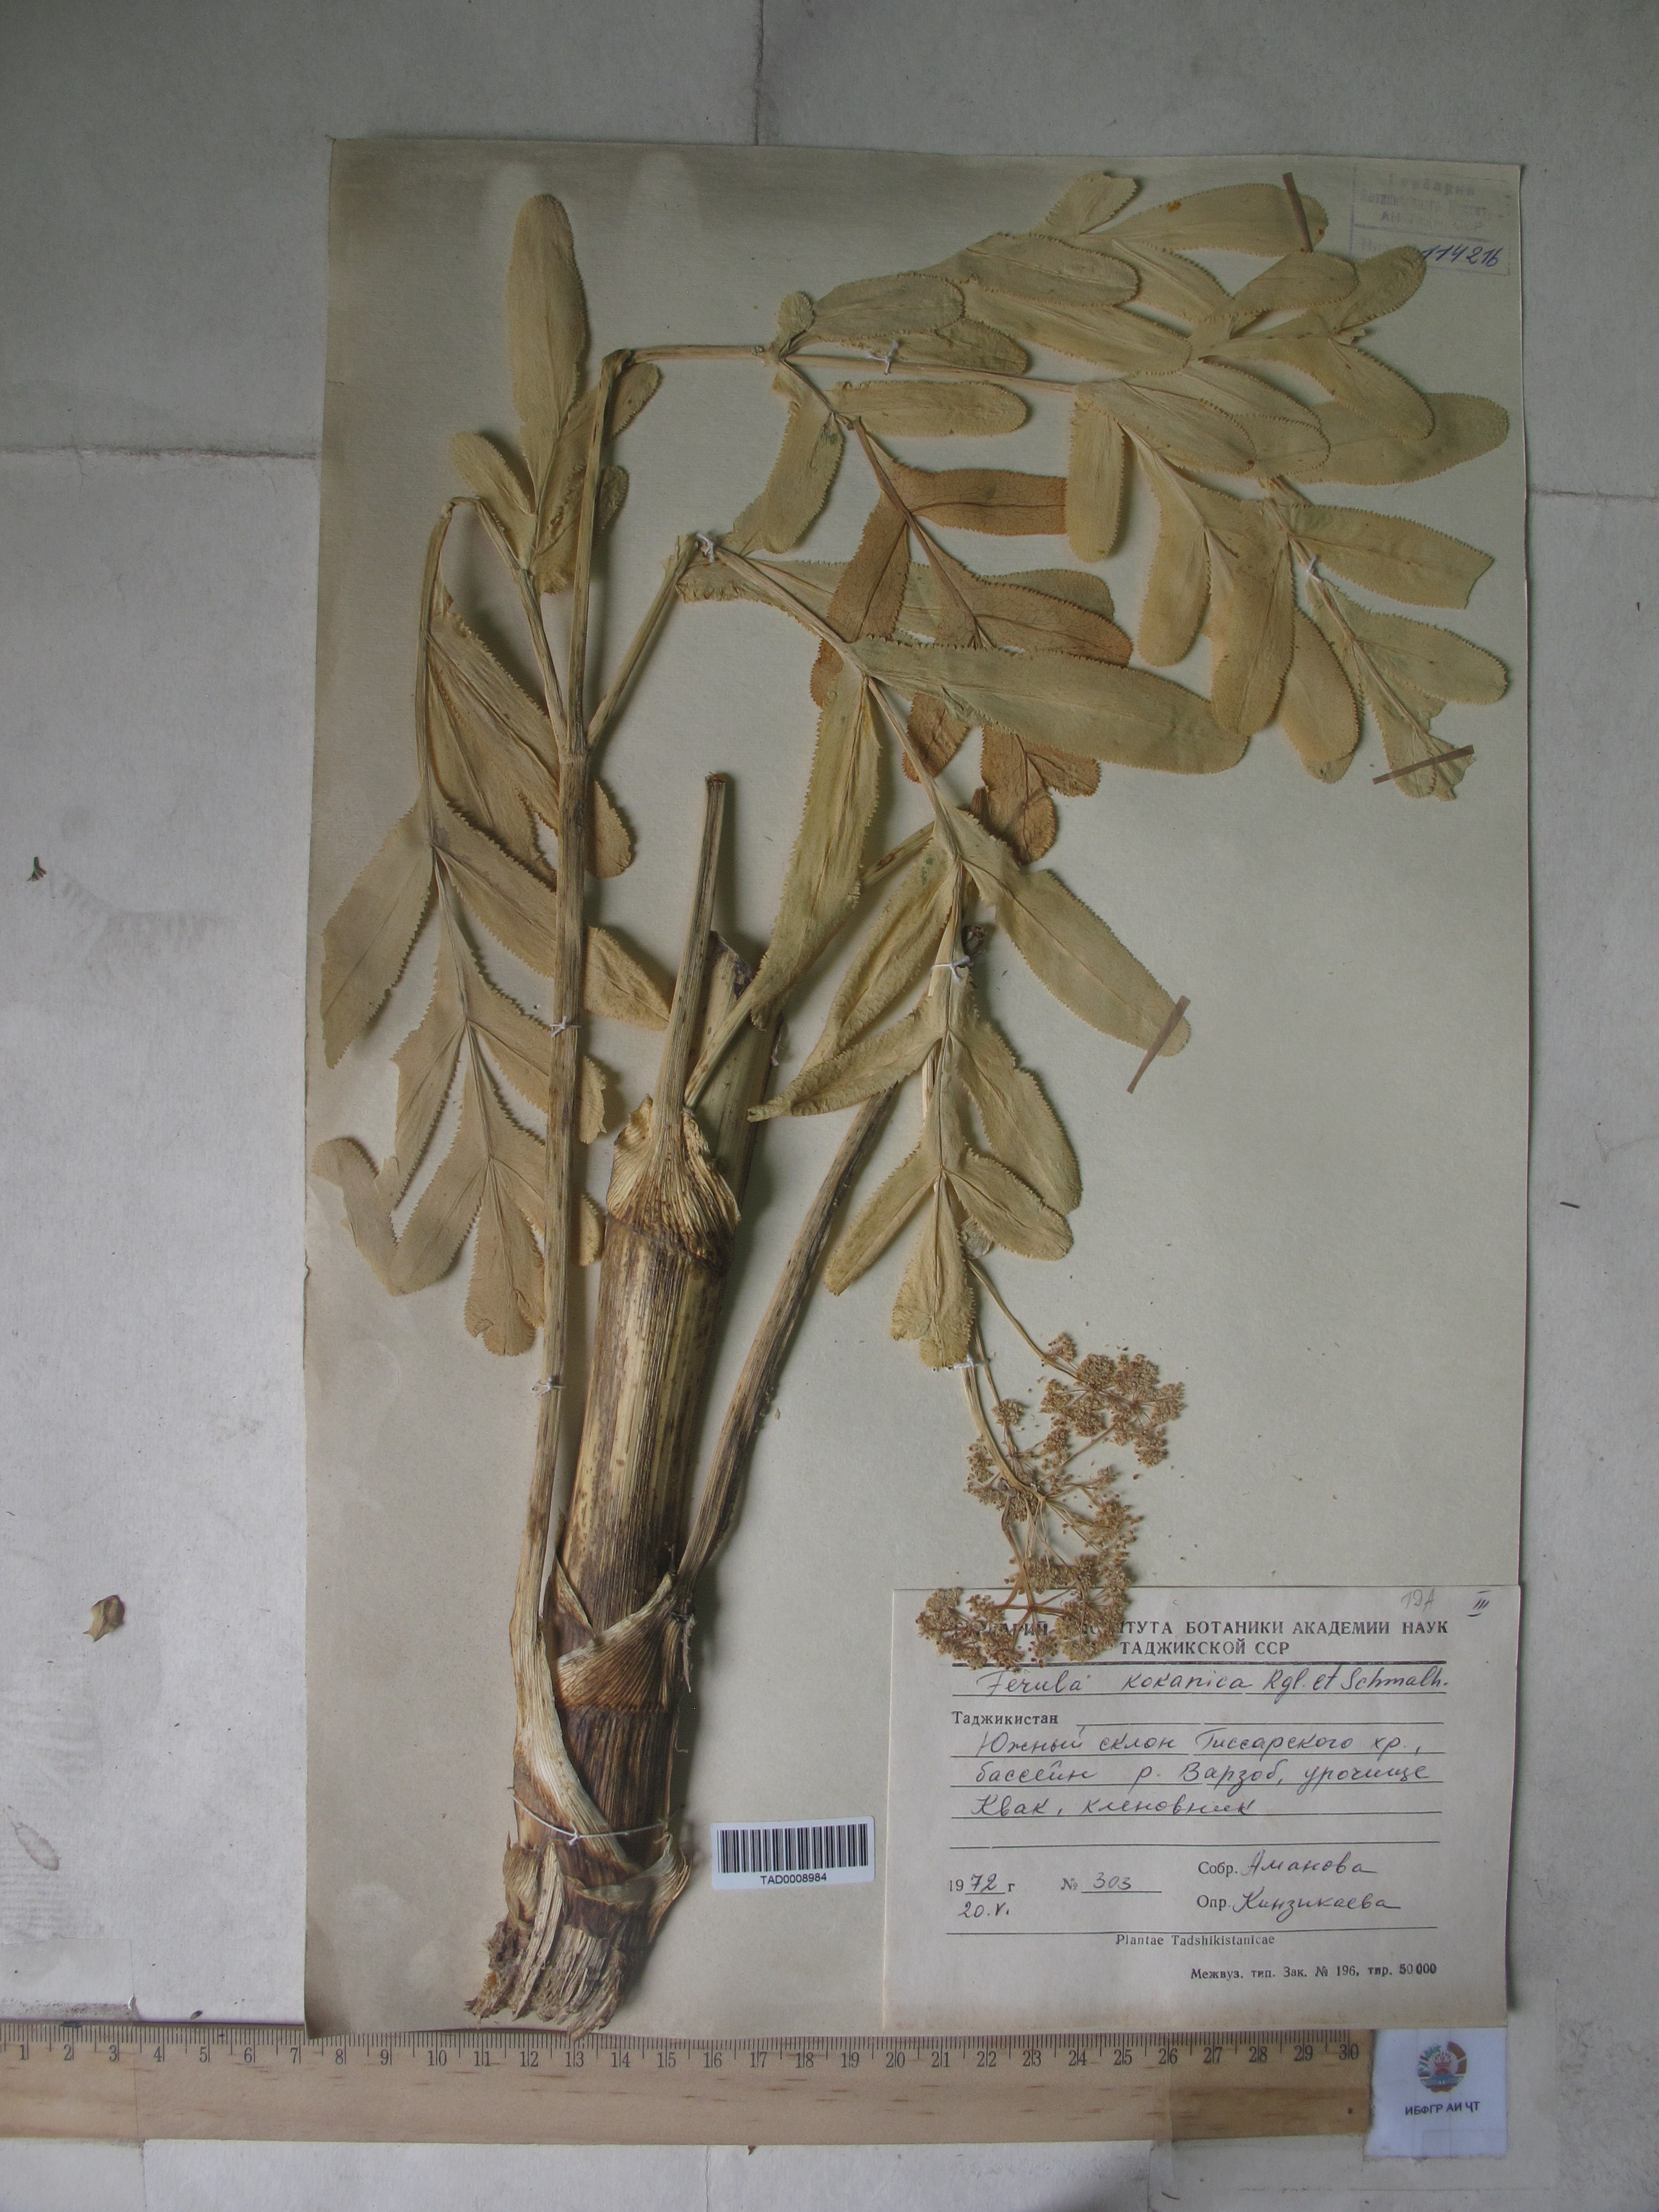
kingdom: Plantae
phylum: Tracheophyta
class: Magnoliopsida
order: Apiales
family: Apiaceae
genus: Ferula
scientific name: Ferula kokanica
